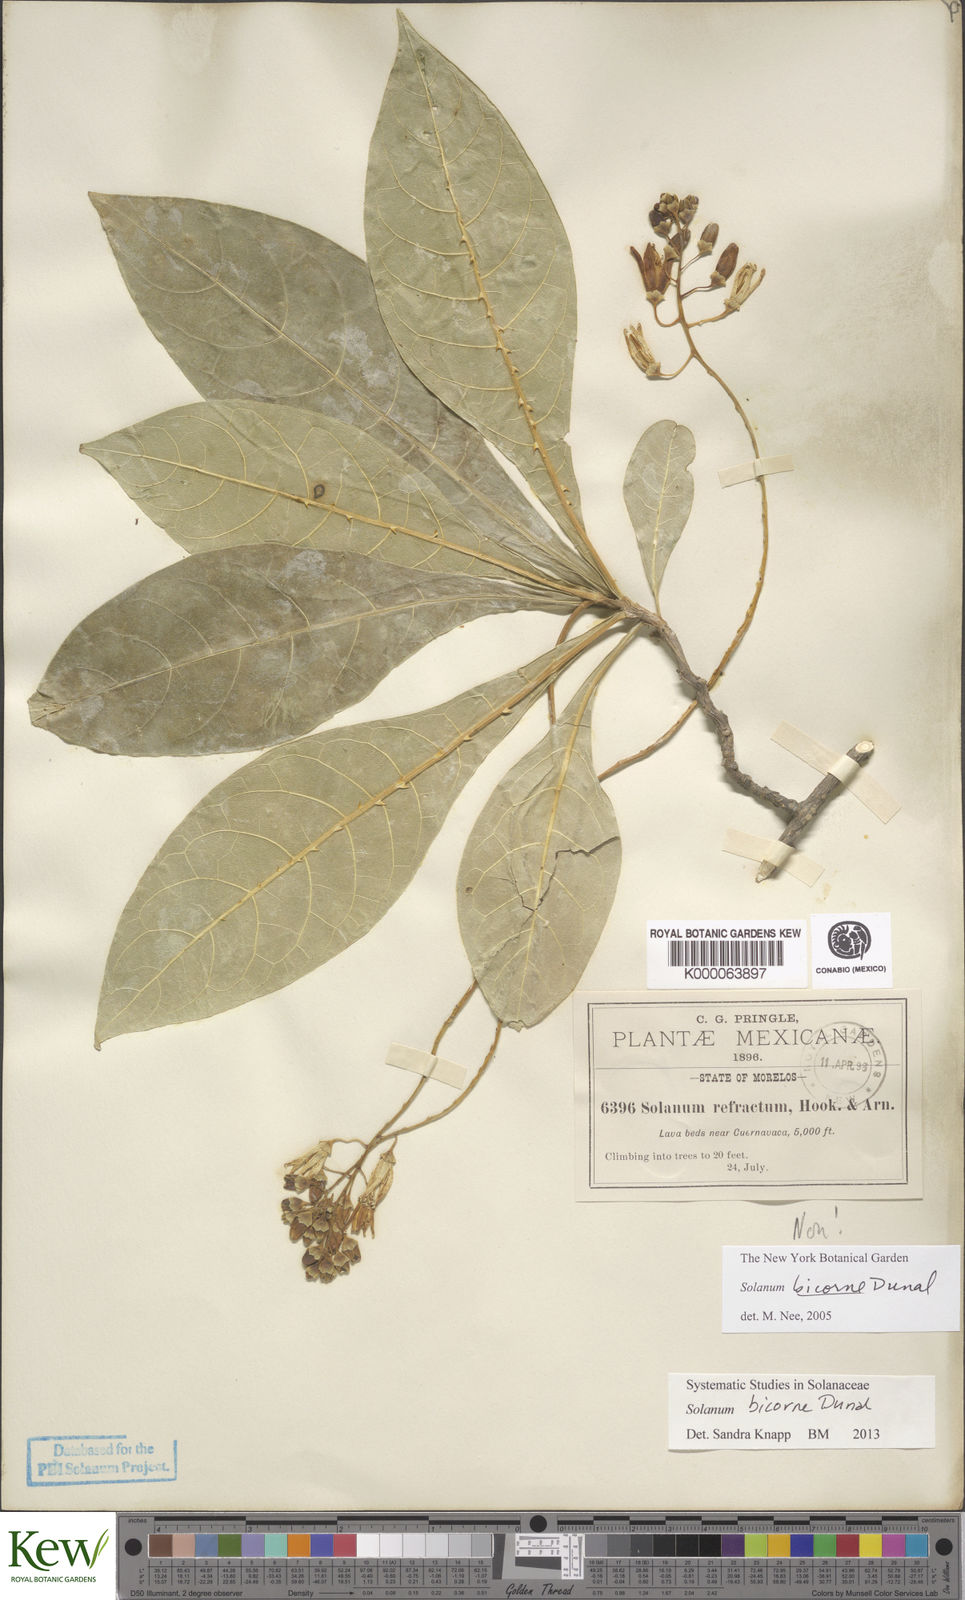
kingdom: Plantae
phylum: Tracheophyta
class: Magnoliopsida
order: Solanales
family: Solanaceae
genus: Solanum
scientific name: Solanum refractum
